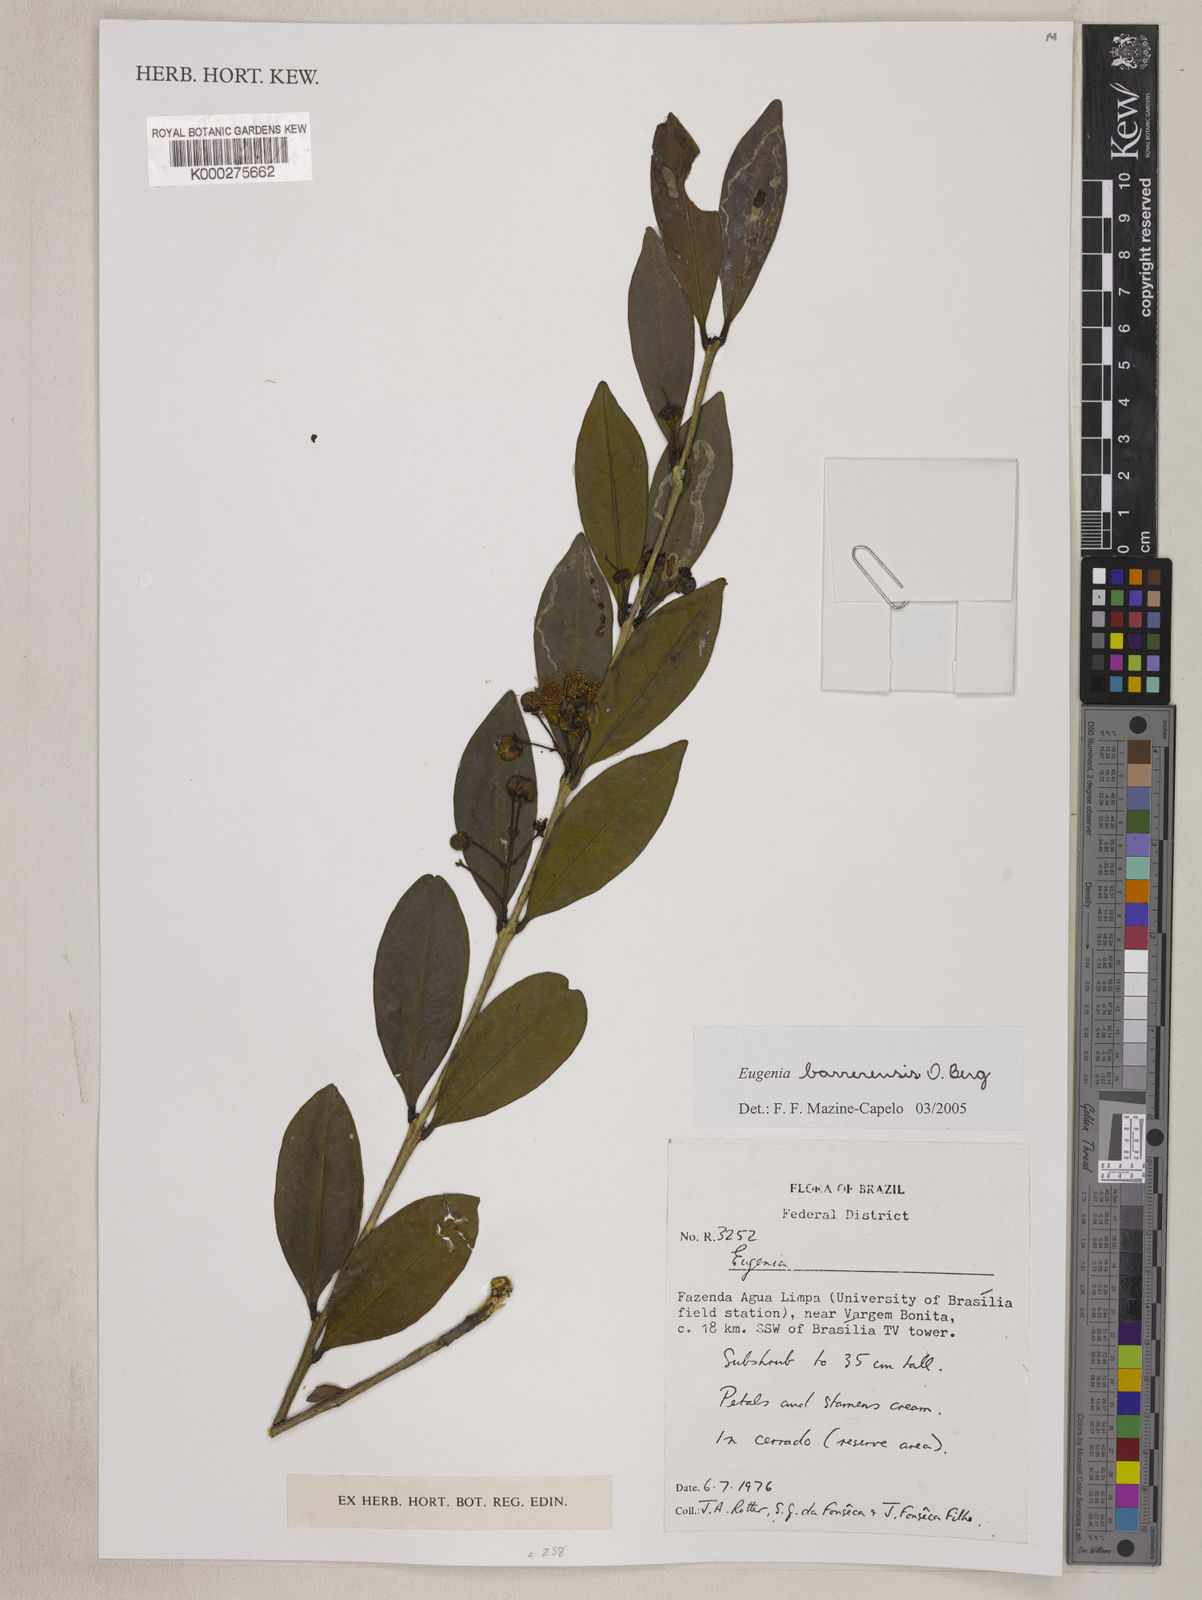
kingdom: Plantae
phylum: Tracheophyta
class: Magnoliopsida
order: Myrtales
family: Myrtaceae
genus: Eugenia
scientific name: Eugenia complicata
